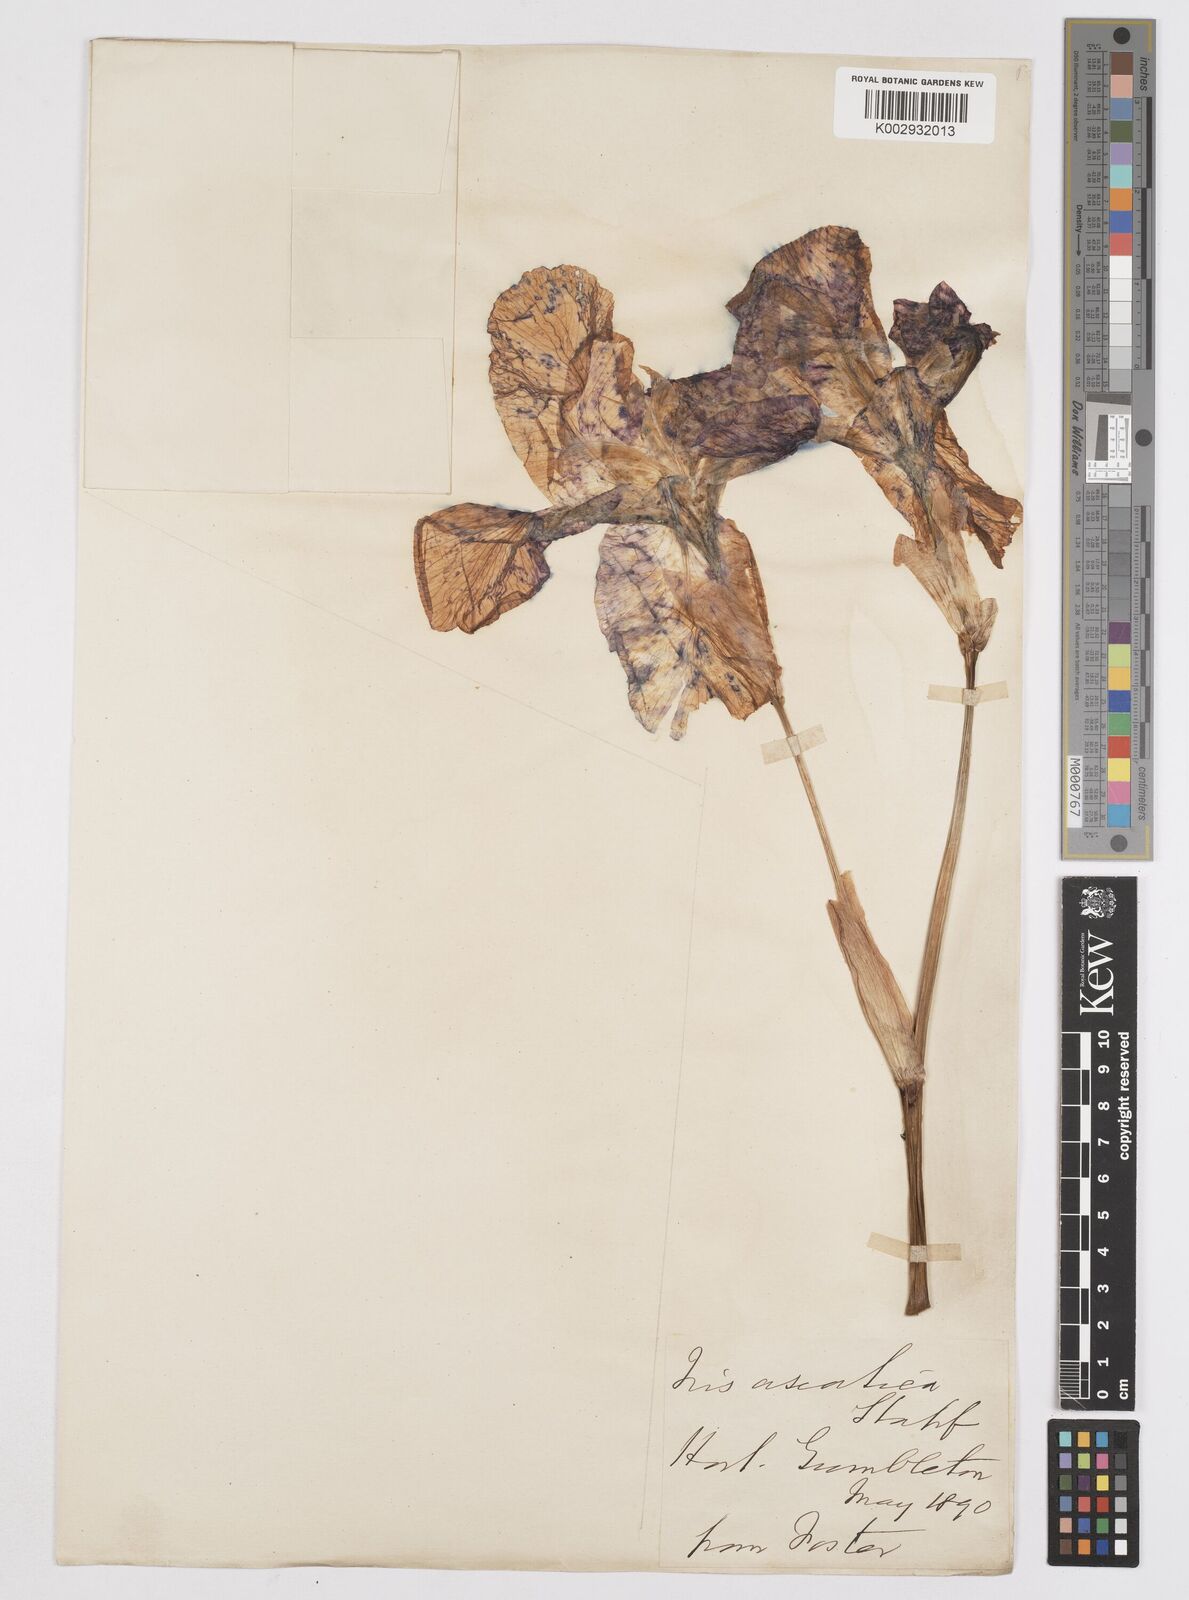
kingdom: Plantae
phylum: Tracheophyta
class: Liliopsida
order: Asparagales
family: Iridaceae
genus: Iris
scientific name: Iris germanica
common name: German iris
